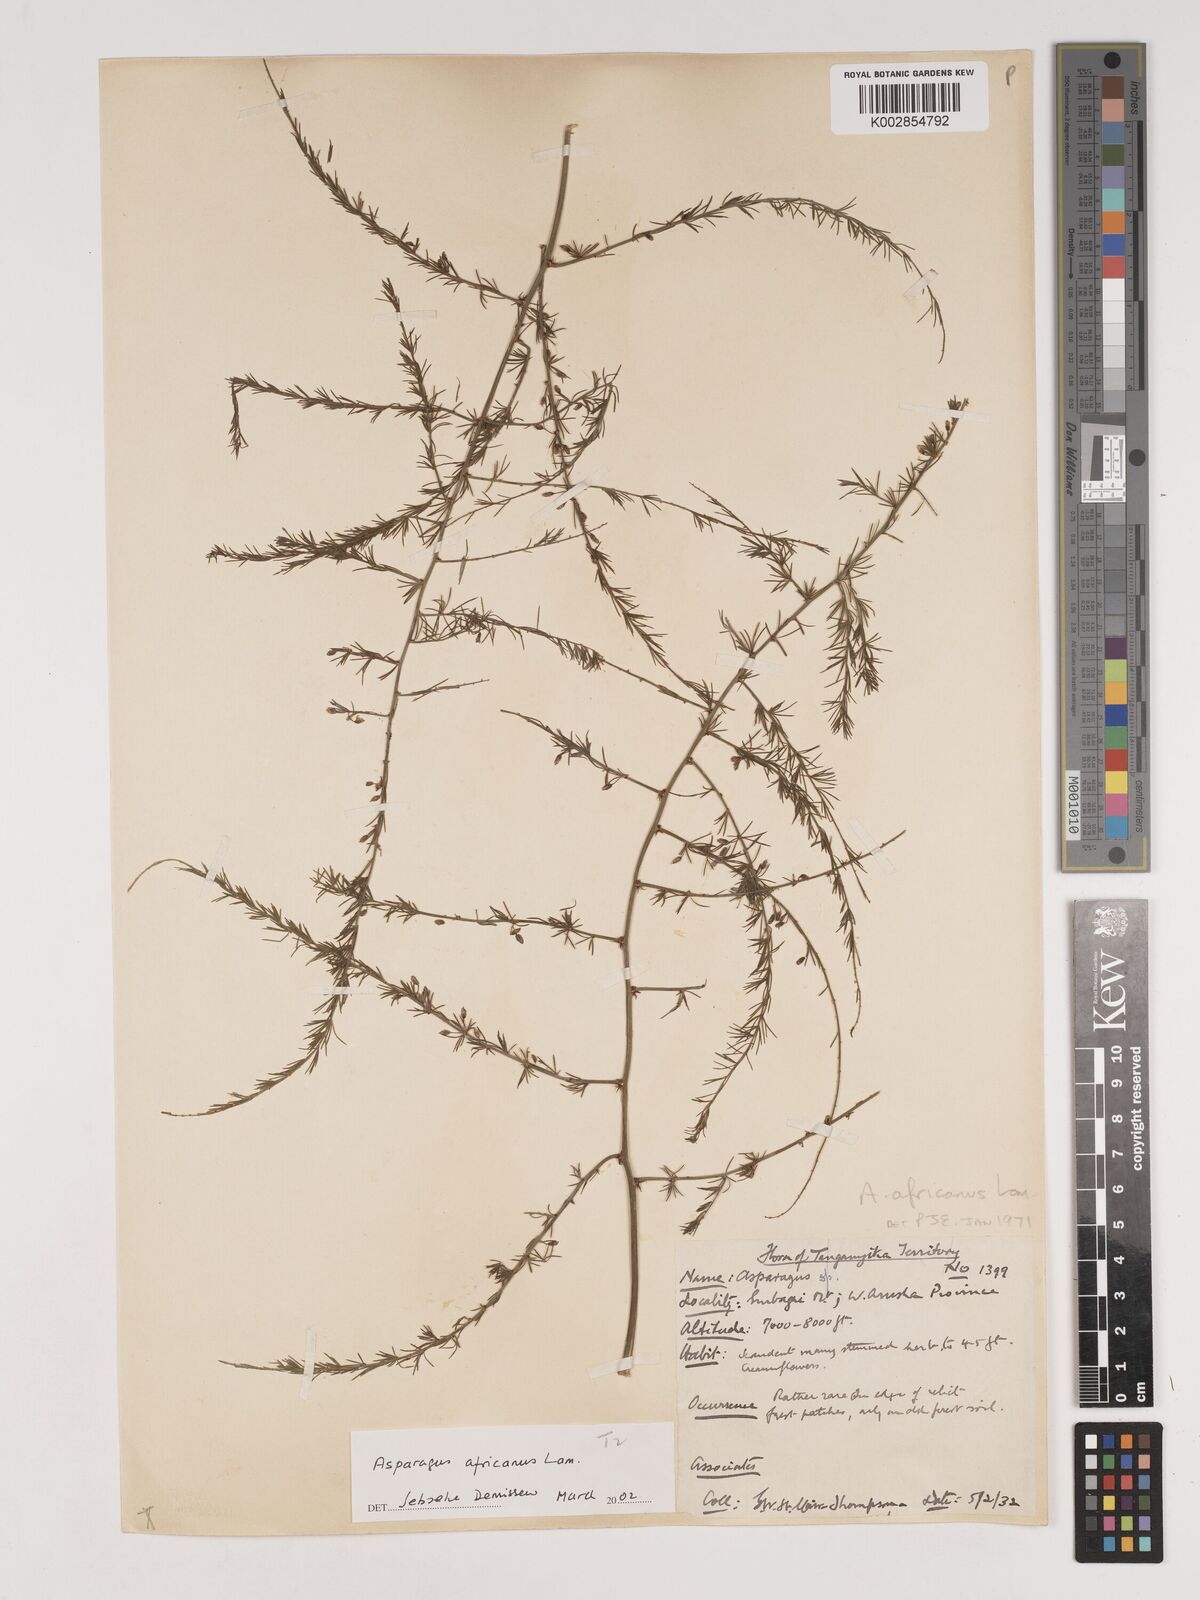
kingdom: Plantae
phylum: Tracheophyta
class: Liliopsida
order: Asparagales
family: Asparagaceae
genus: Asparagus
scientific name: Asparagus africanus
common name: Asparagus-fern
